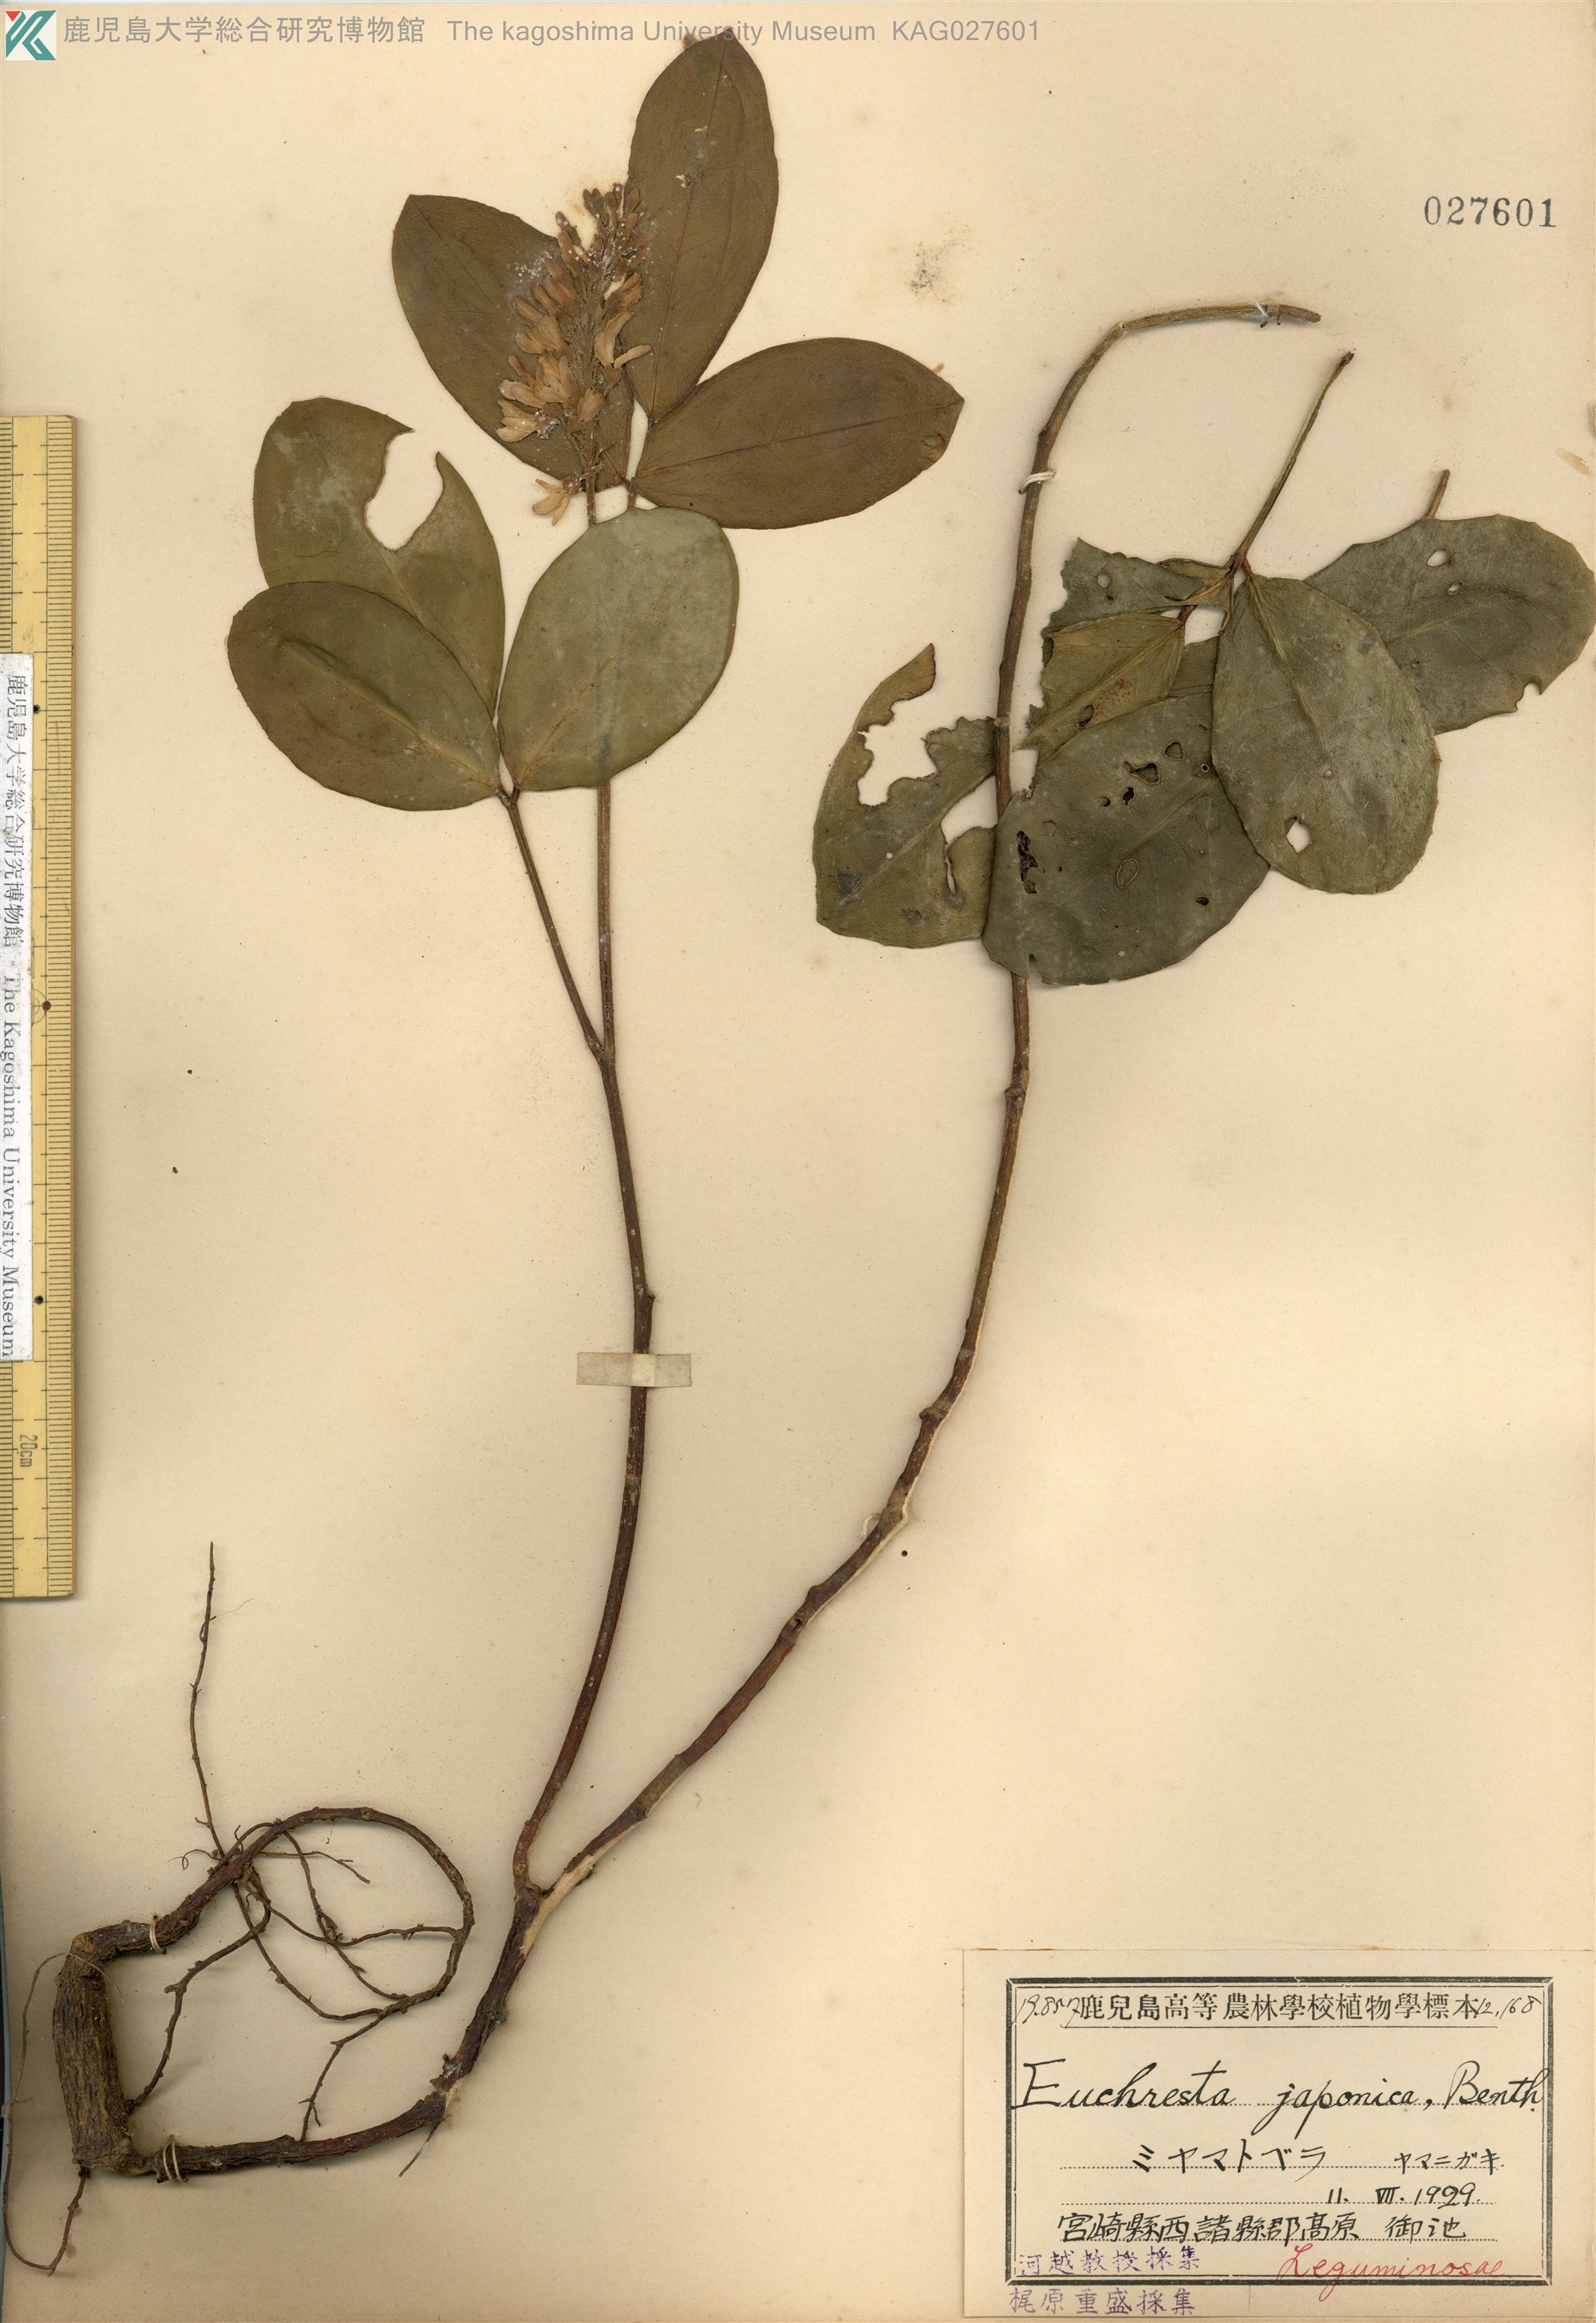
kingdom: Plantae
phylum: Tracheophyta
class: Magnoliopsida
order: Fabales
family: Fabaceae
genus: Euchresta
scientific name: Euchresta japonica
